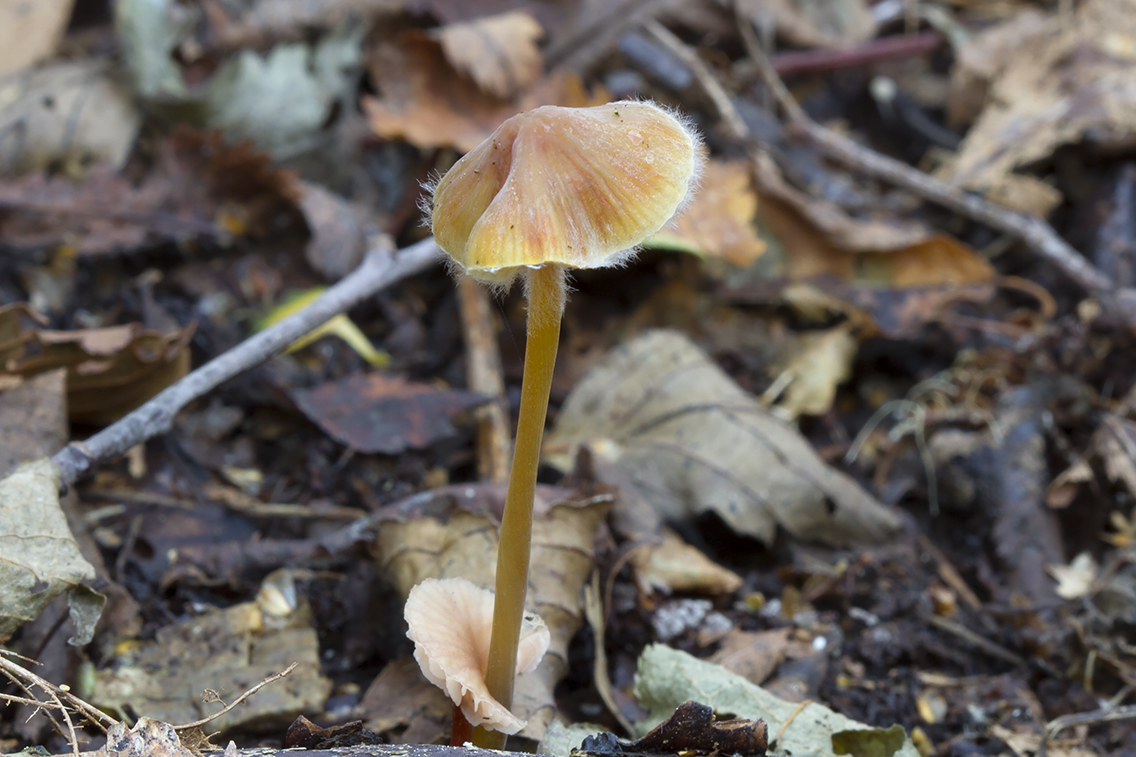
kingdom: Fungi
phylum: Basidiomycota
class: Agaricomycetes
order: Agaricales
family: Mycenaceae
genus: Mycena
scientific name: Mycena crocata
